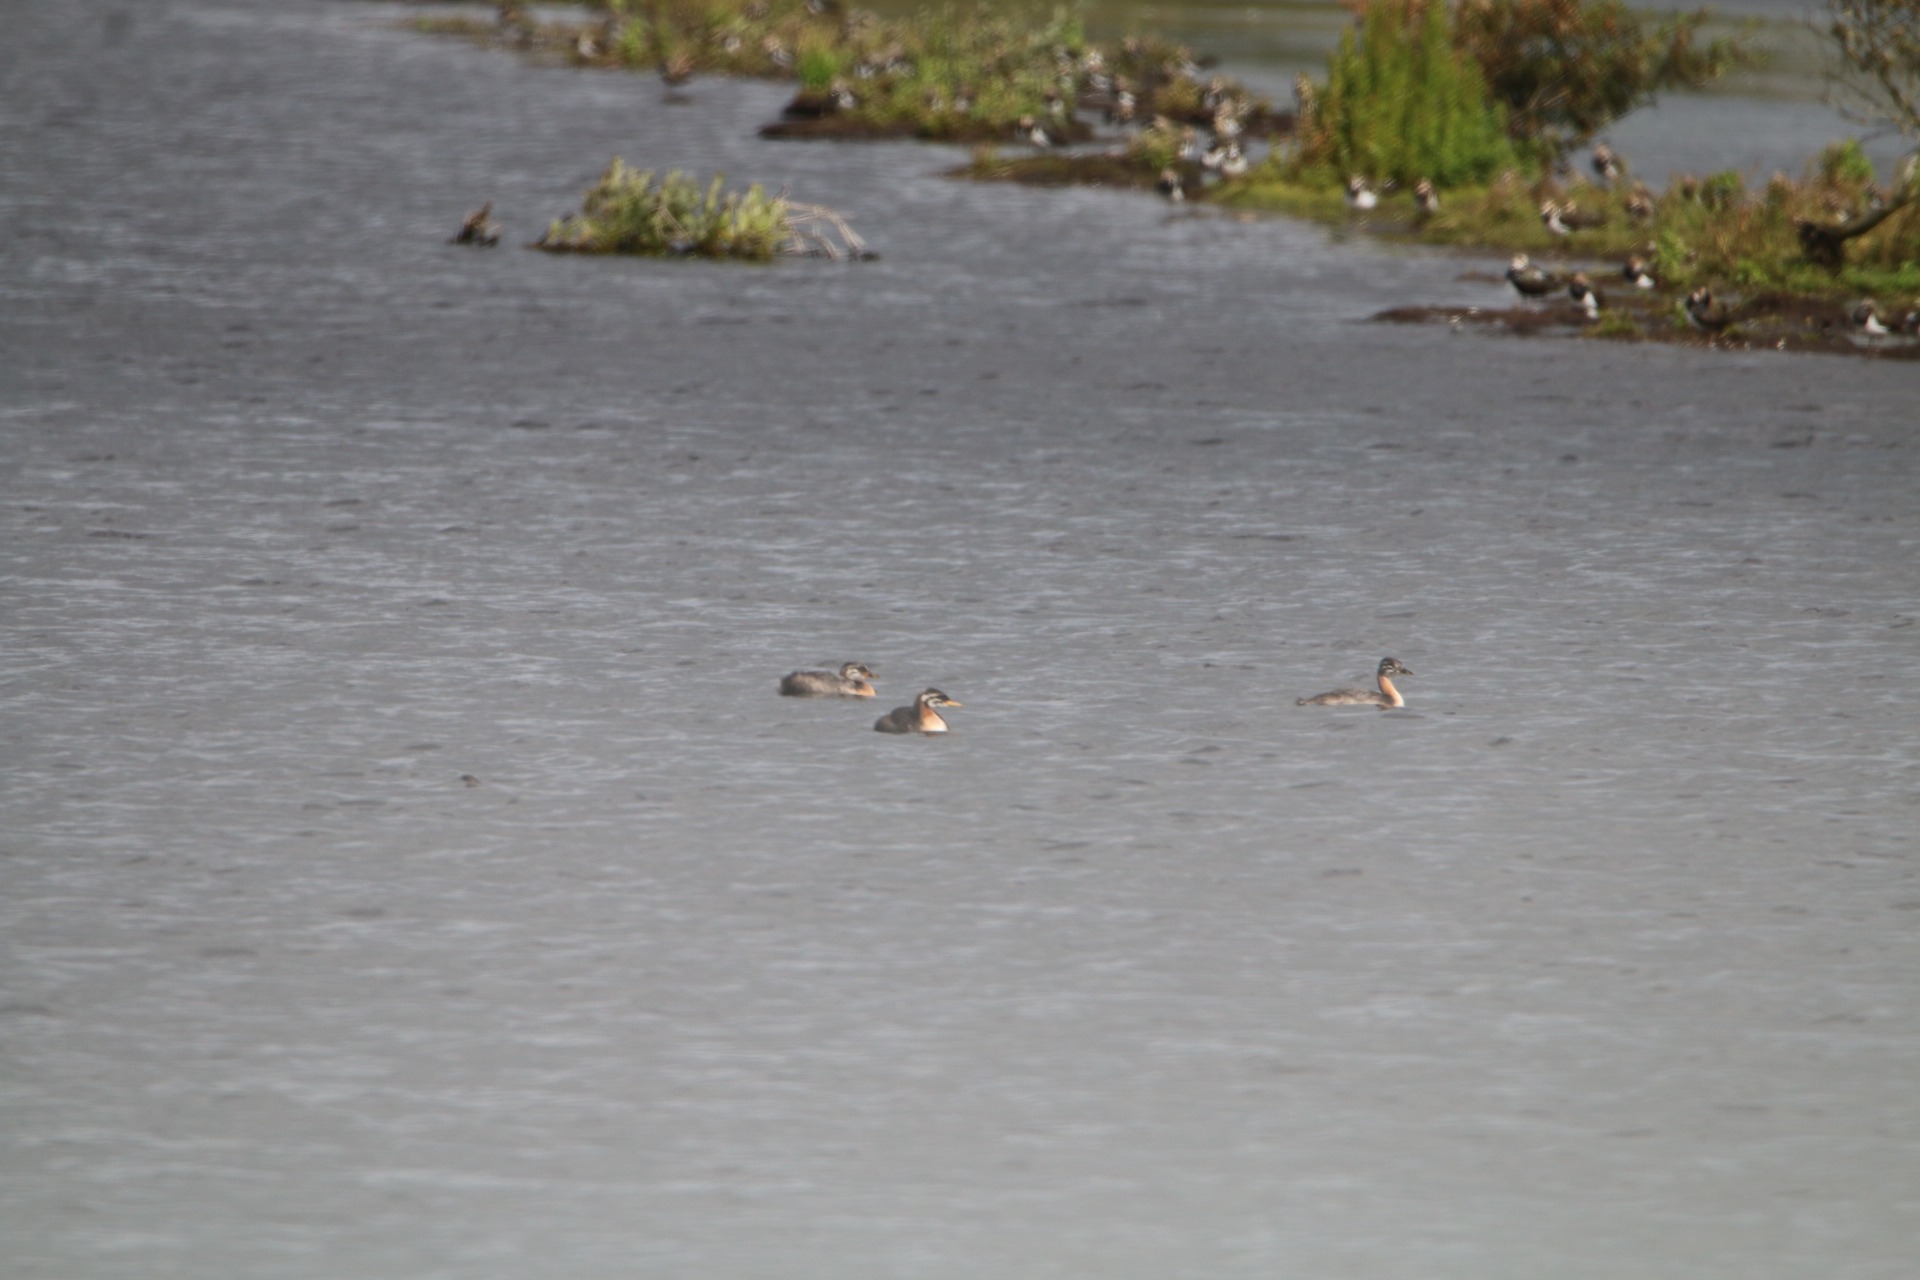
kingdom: Animalia
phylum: Chordata
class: Aves
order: Podicipediformes
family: Podicipedidae
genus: Podiceps
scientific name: Podiceps grisegena
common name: Gråstrubet lappedykker
